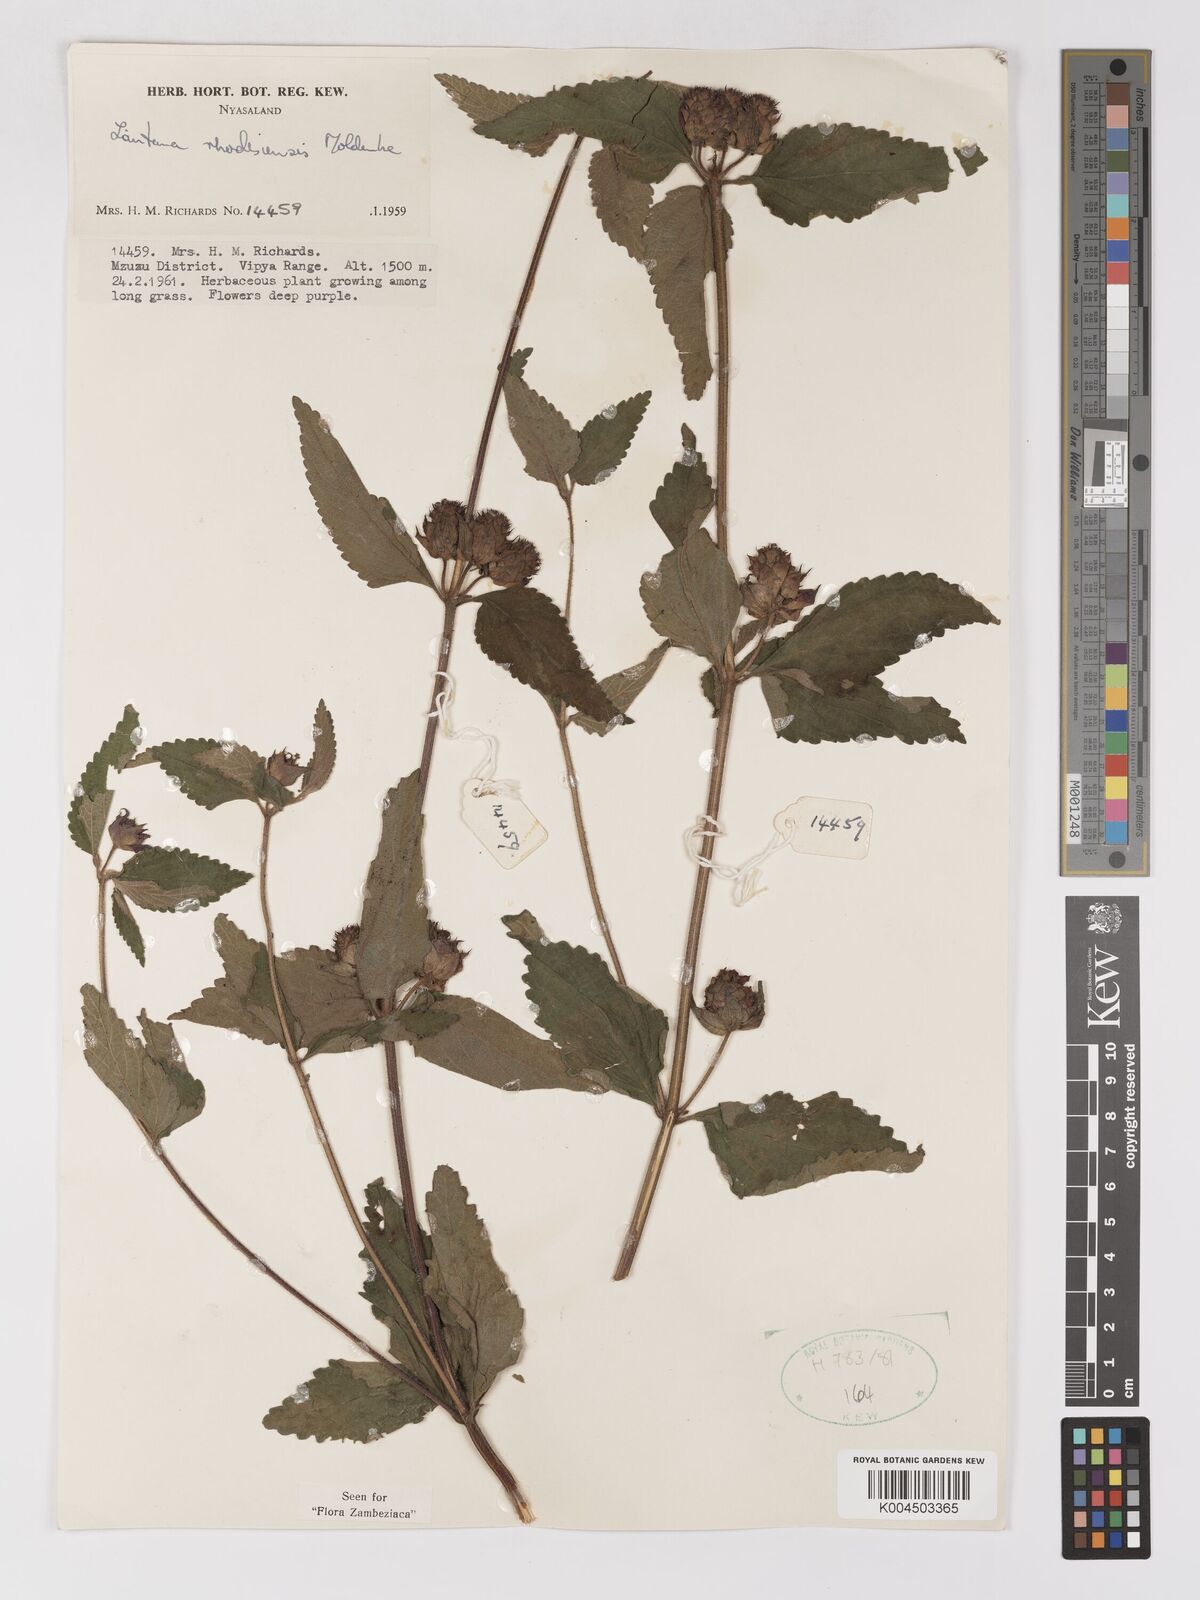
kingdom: Plantae
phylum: Tracheophyta
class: Magnoliopsida
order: Lamiales
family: Verbenaceae
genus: Lantana
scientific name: Lantana ukambensis
